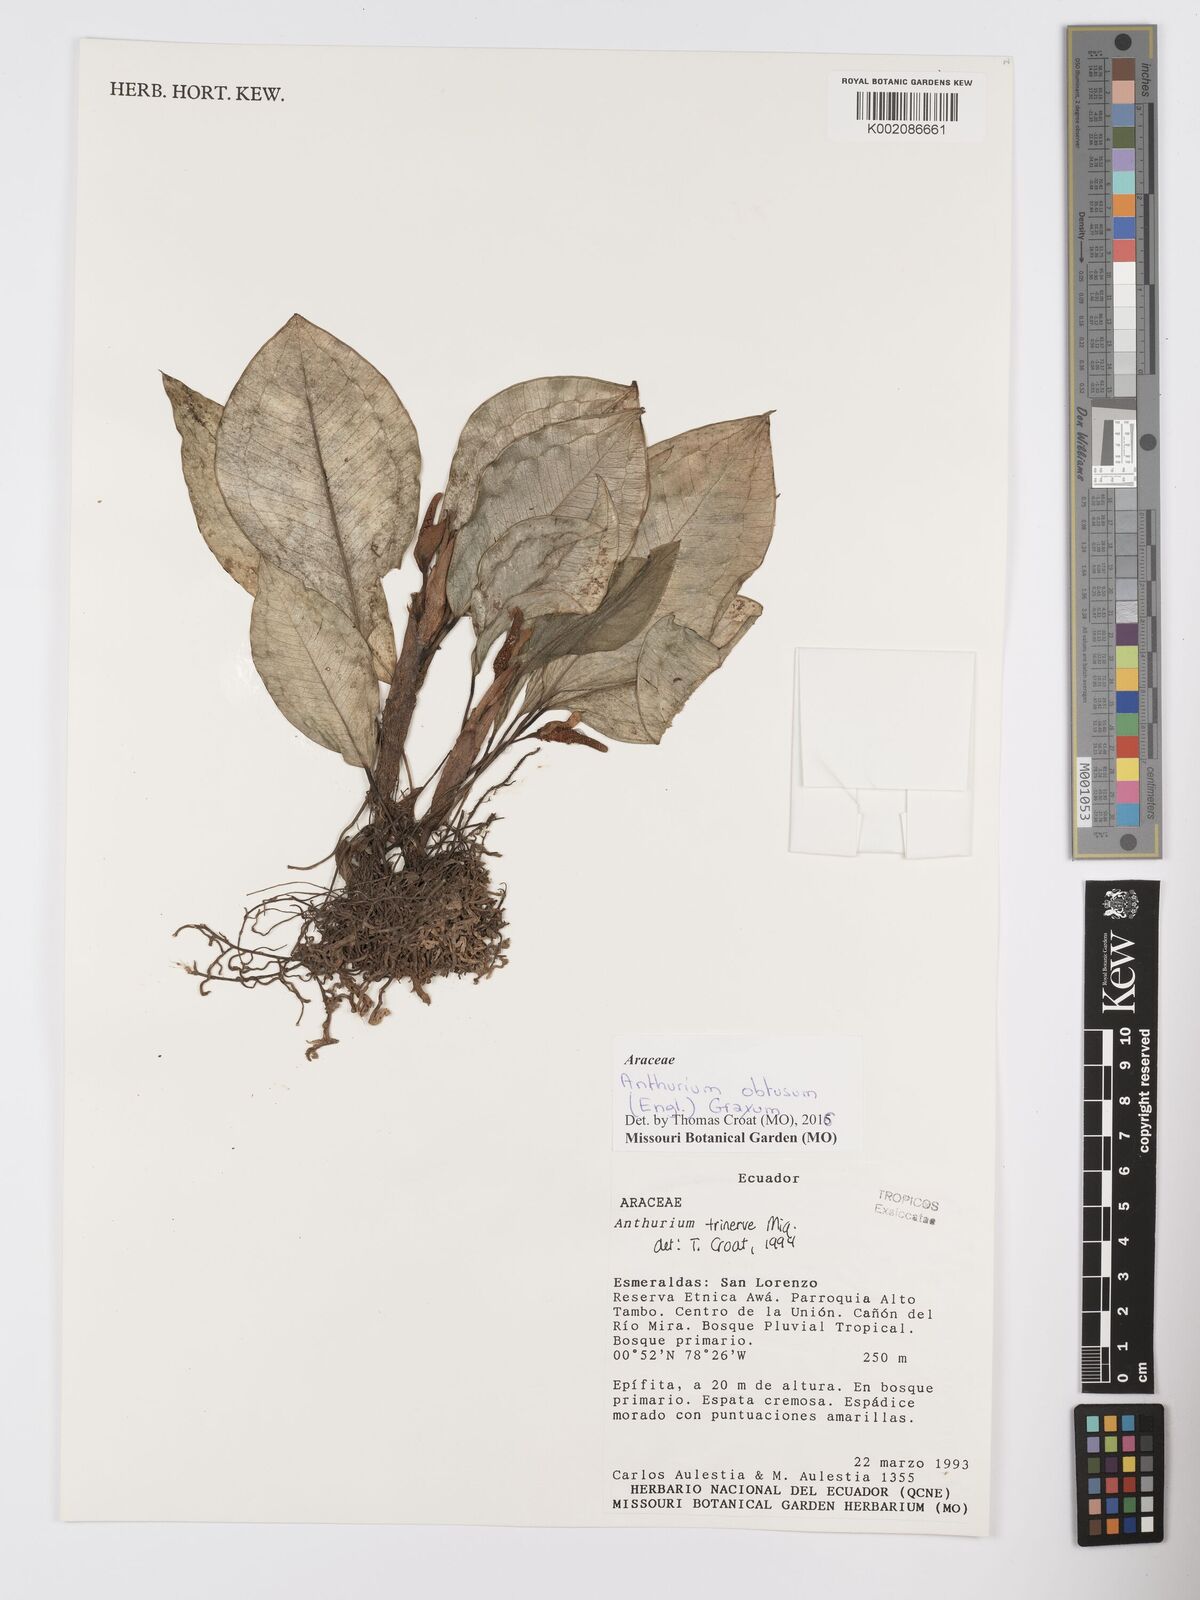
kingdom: Plantae
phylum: Tracheophyta
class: Liliopsida
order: Alismatales
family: Araceae
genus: Anthurium
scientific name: Anthurium obtusum
